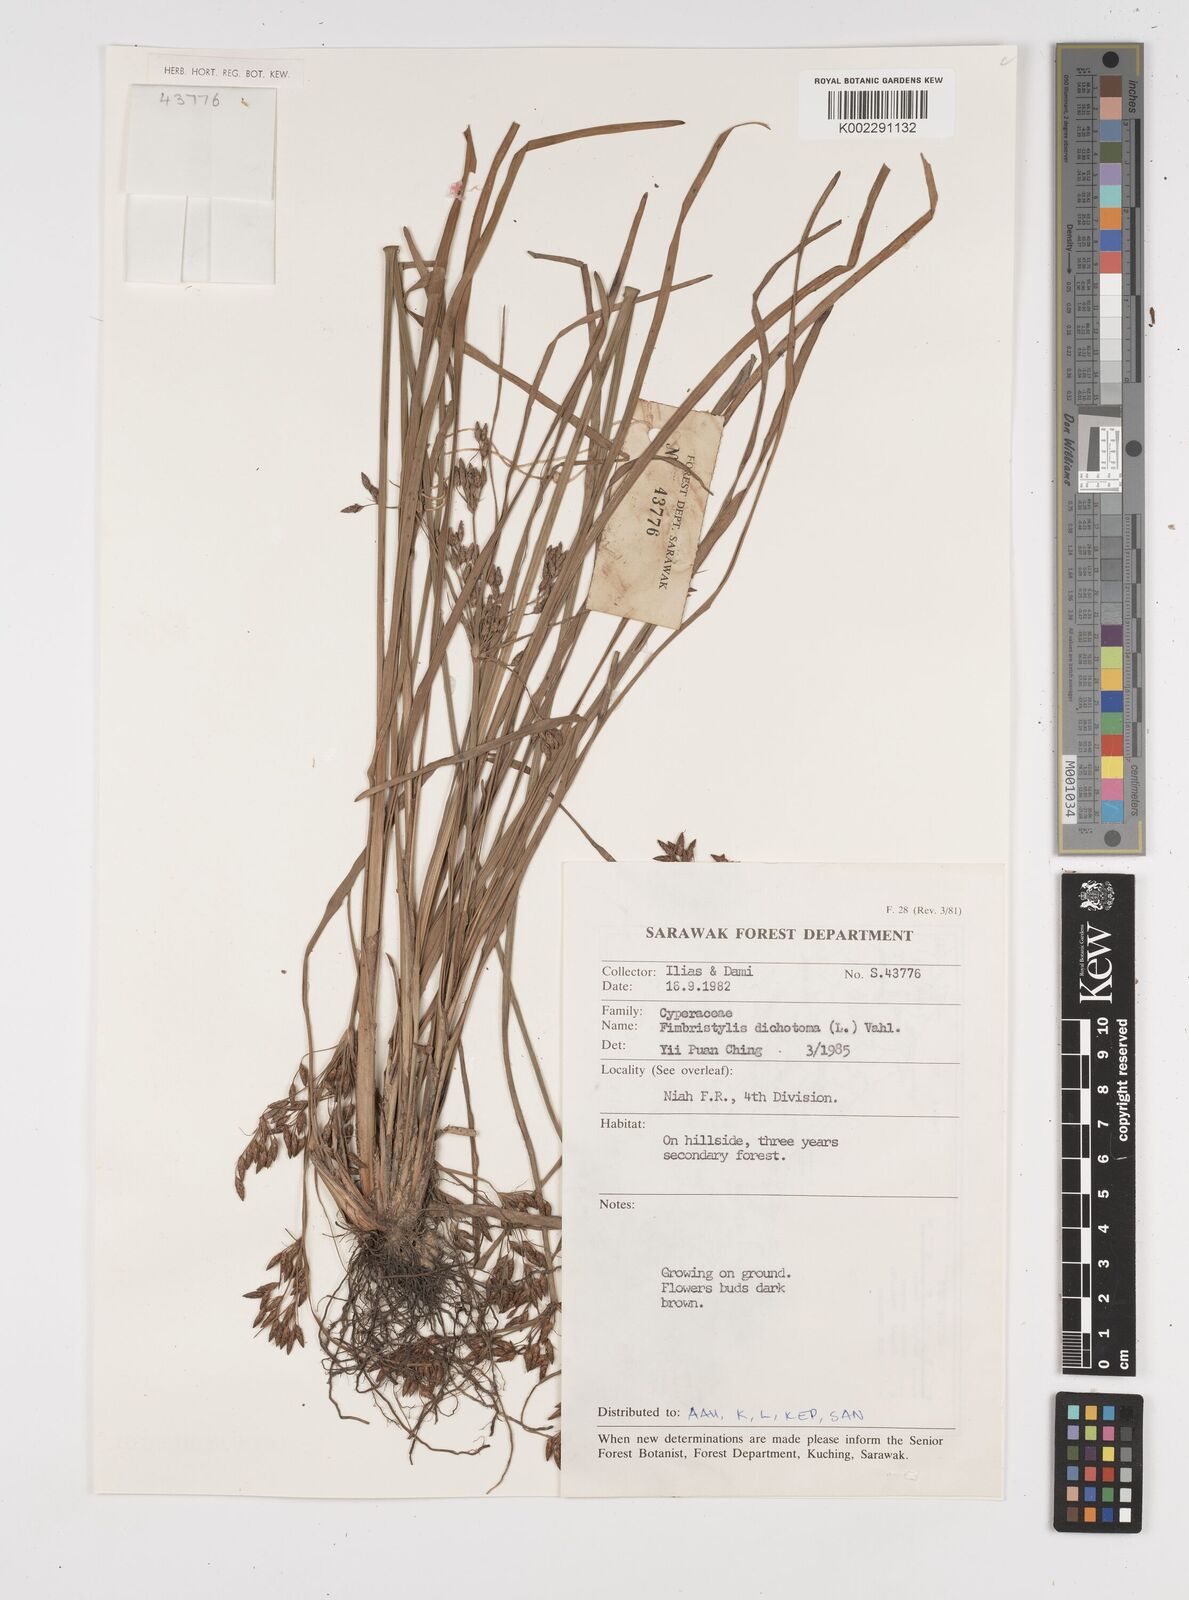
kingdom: Plantae
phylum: Tracheophyta
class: Liliopsida
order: Poales
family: Cyperaceae
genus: Fimbristylis
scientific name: Fimbristylis dichotoma
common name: Forked fimbry
